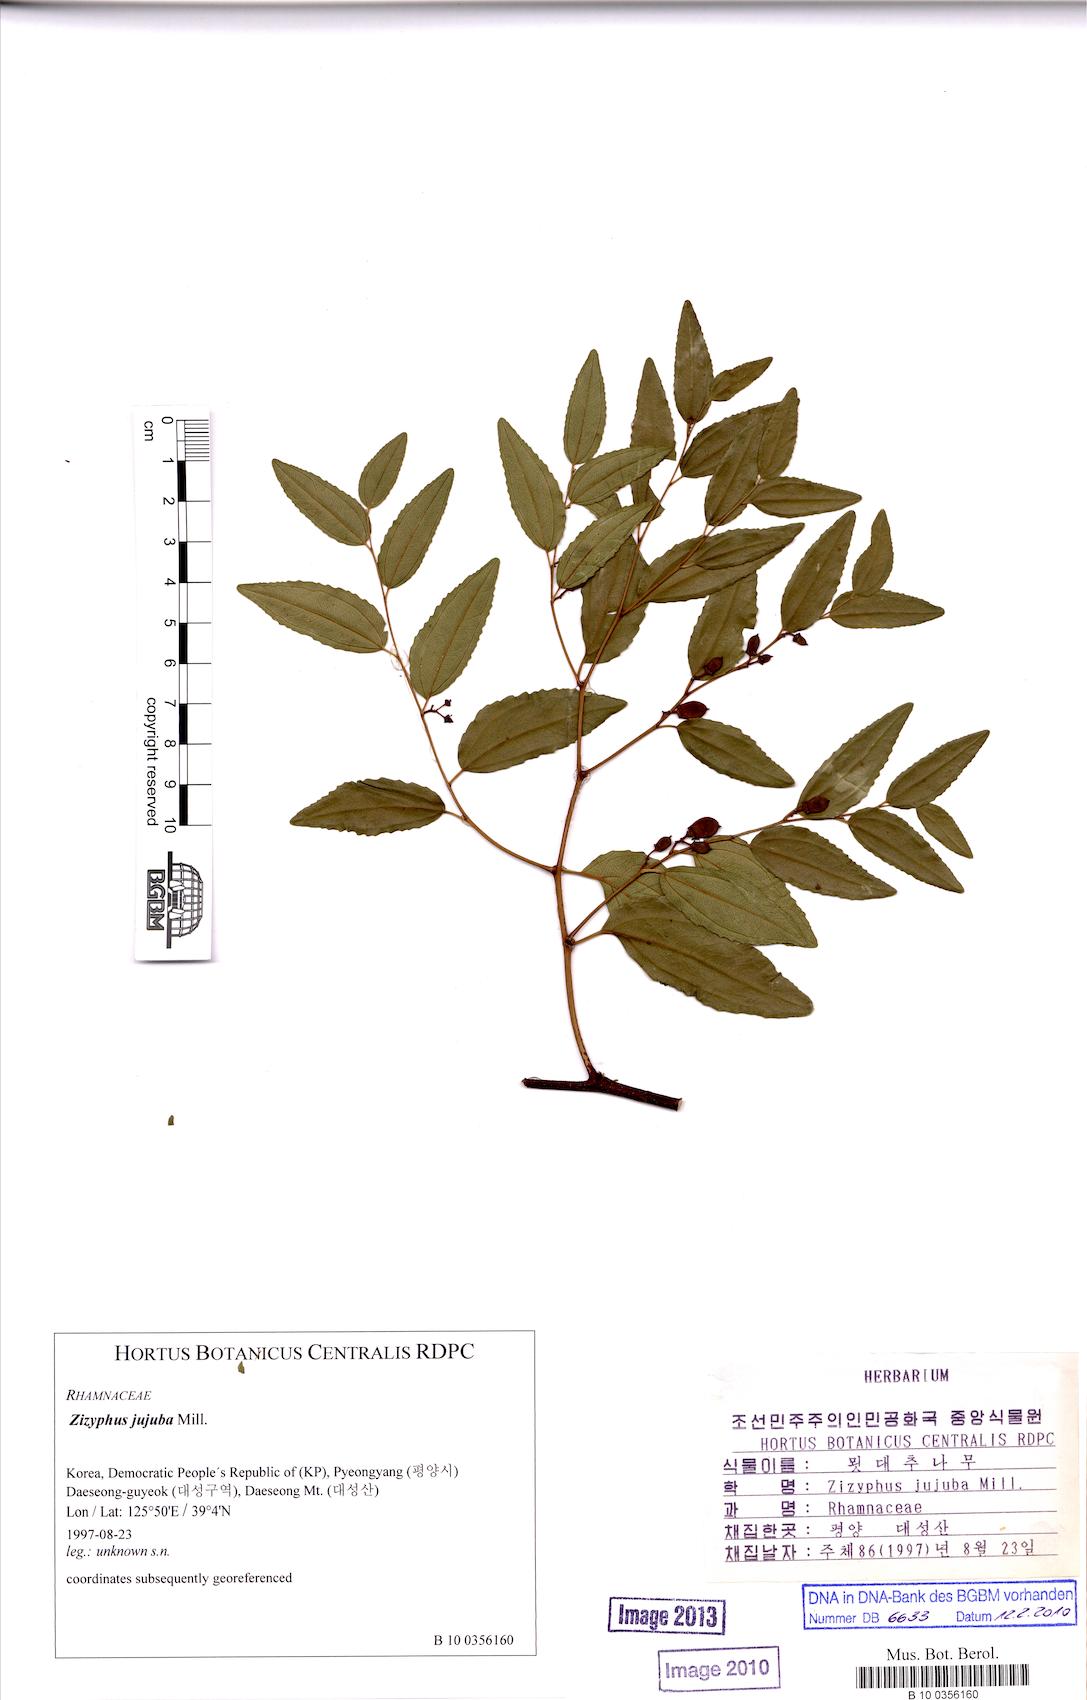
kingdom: Plantae
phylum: Tracheophyta
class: Magnoliopsida
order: Rosales
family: Rhamnaceae
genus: Ziziphus
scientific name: Ziziphus jujuba
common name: Jujube red date
